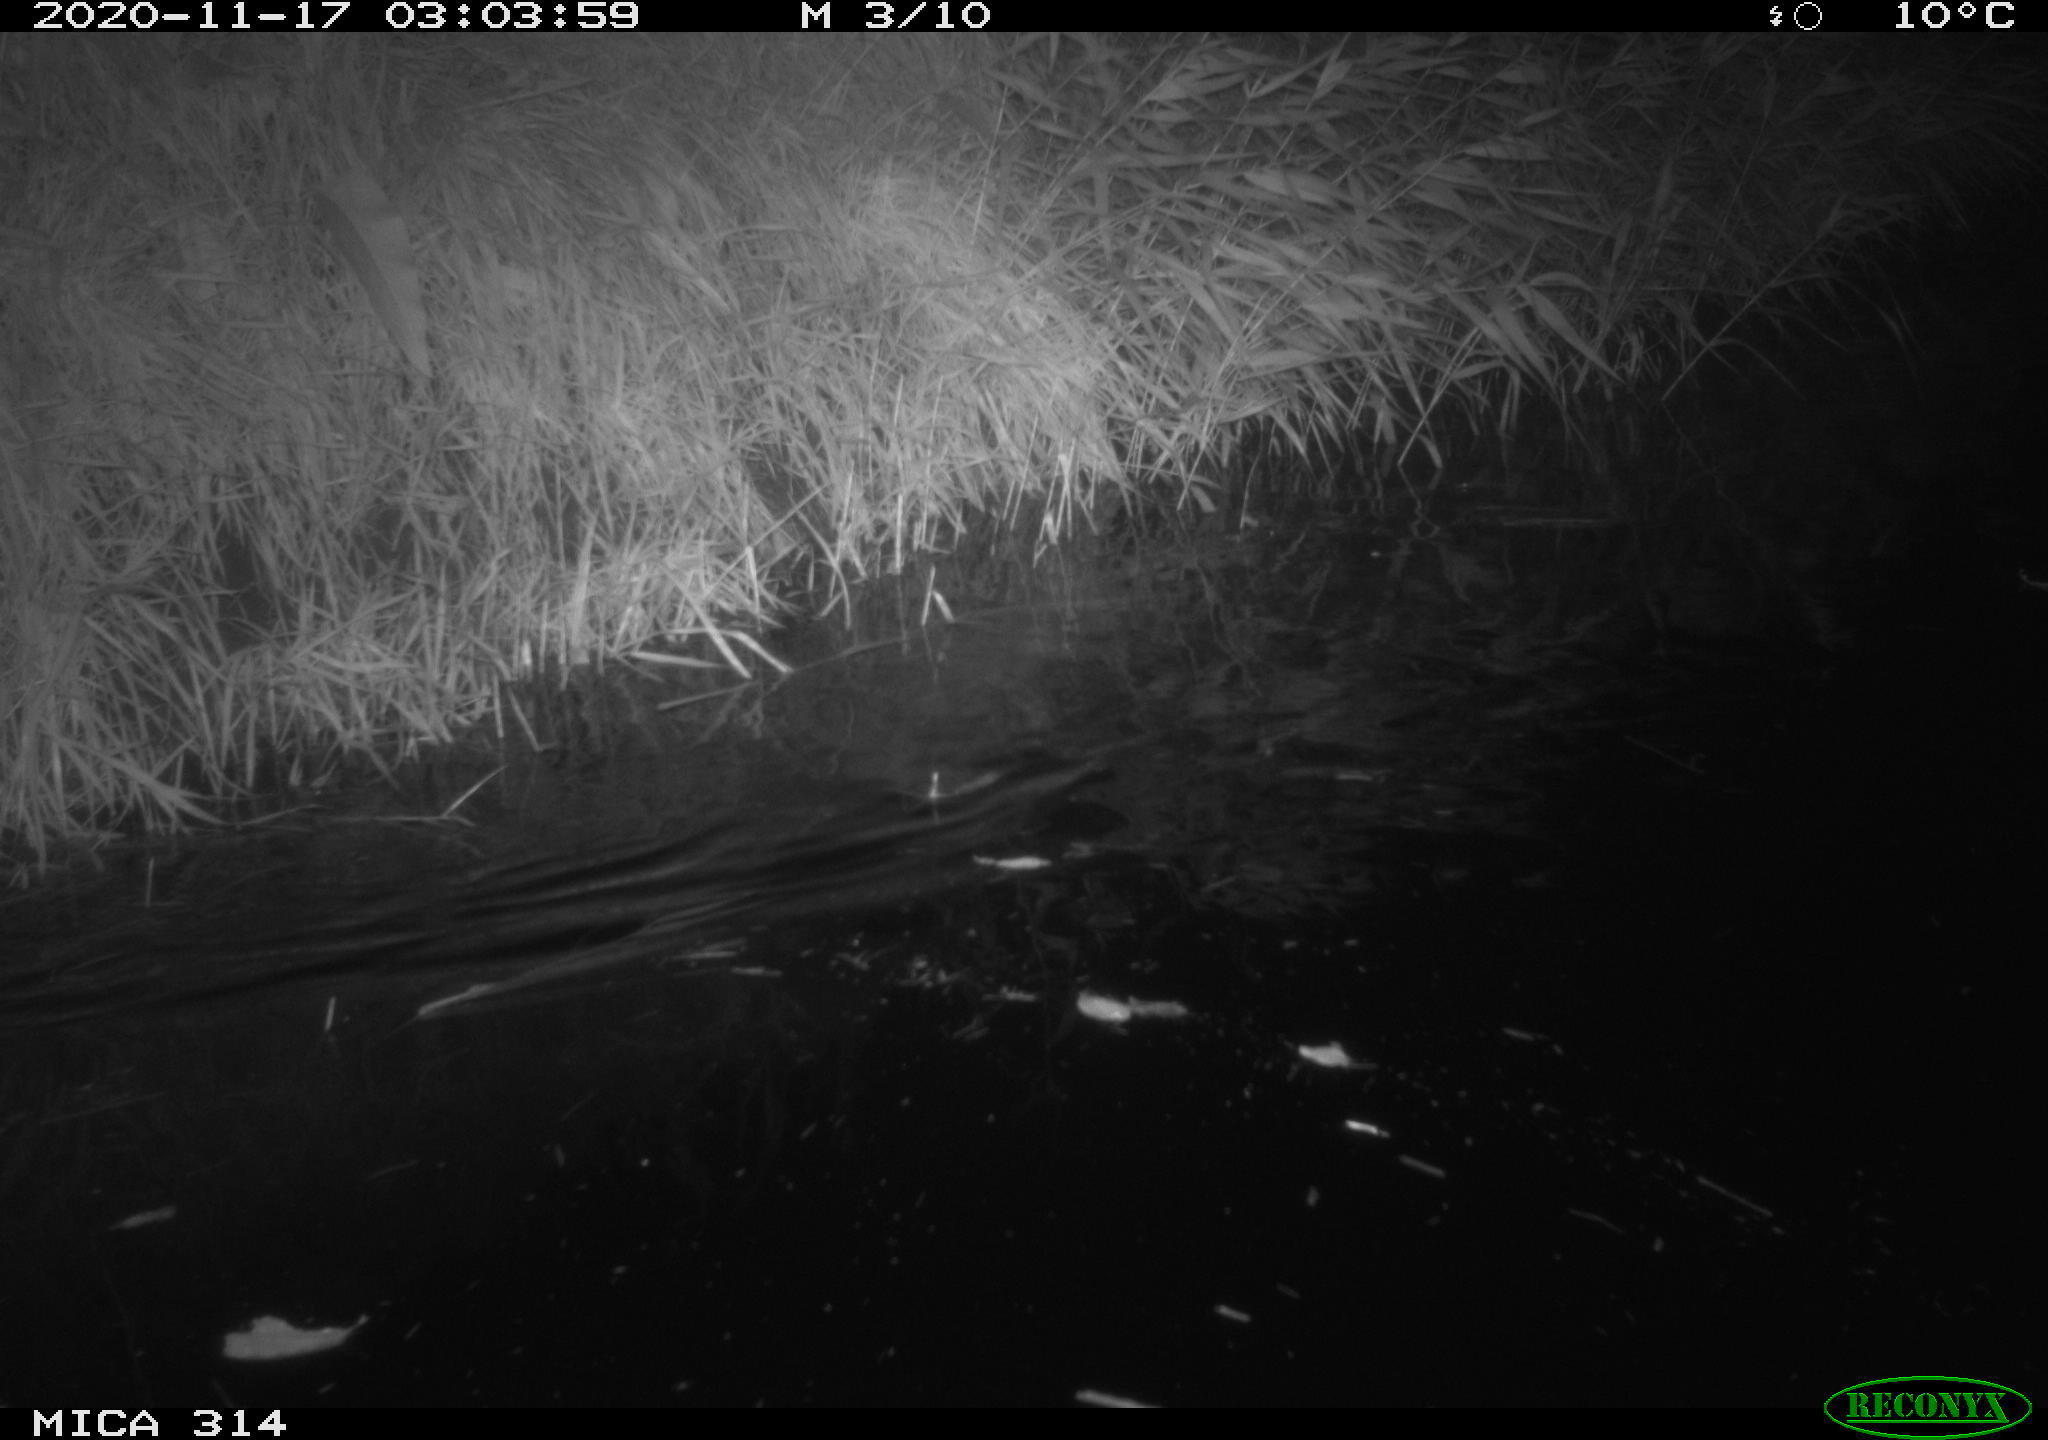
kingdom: Animalia
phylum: Chordata
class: Mammalia
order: Rodentia
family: Muridae
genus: Rattus
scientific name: Rattus norvegicus
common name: Brown rat
